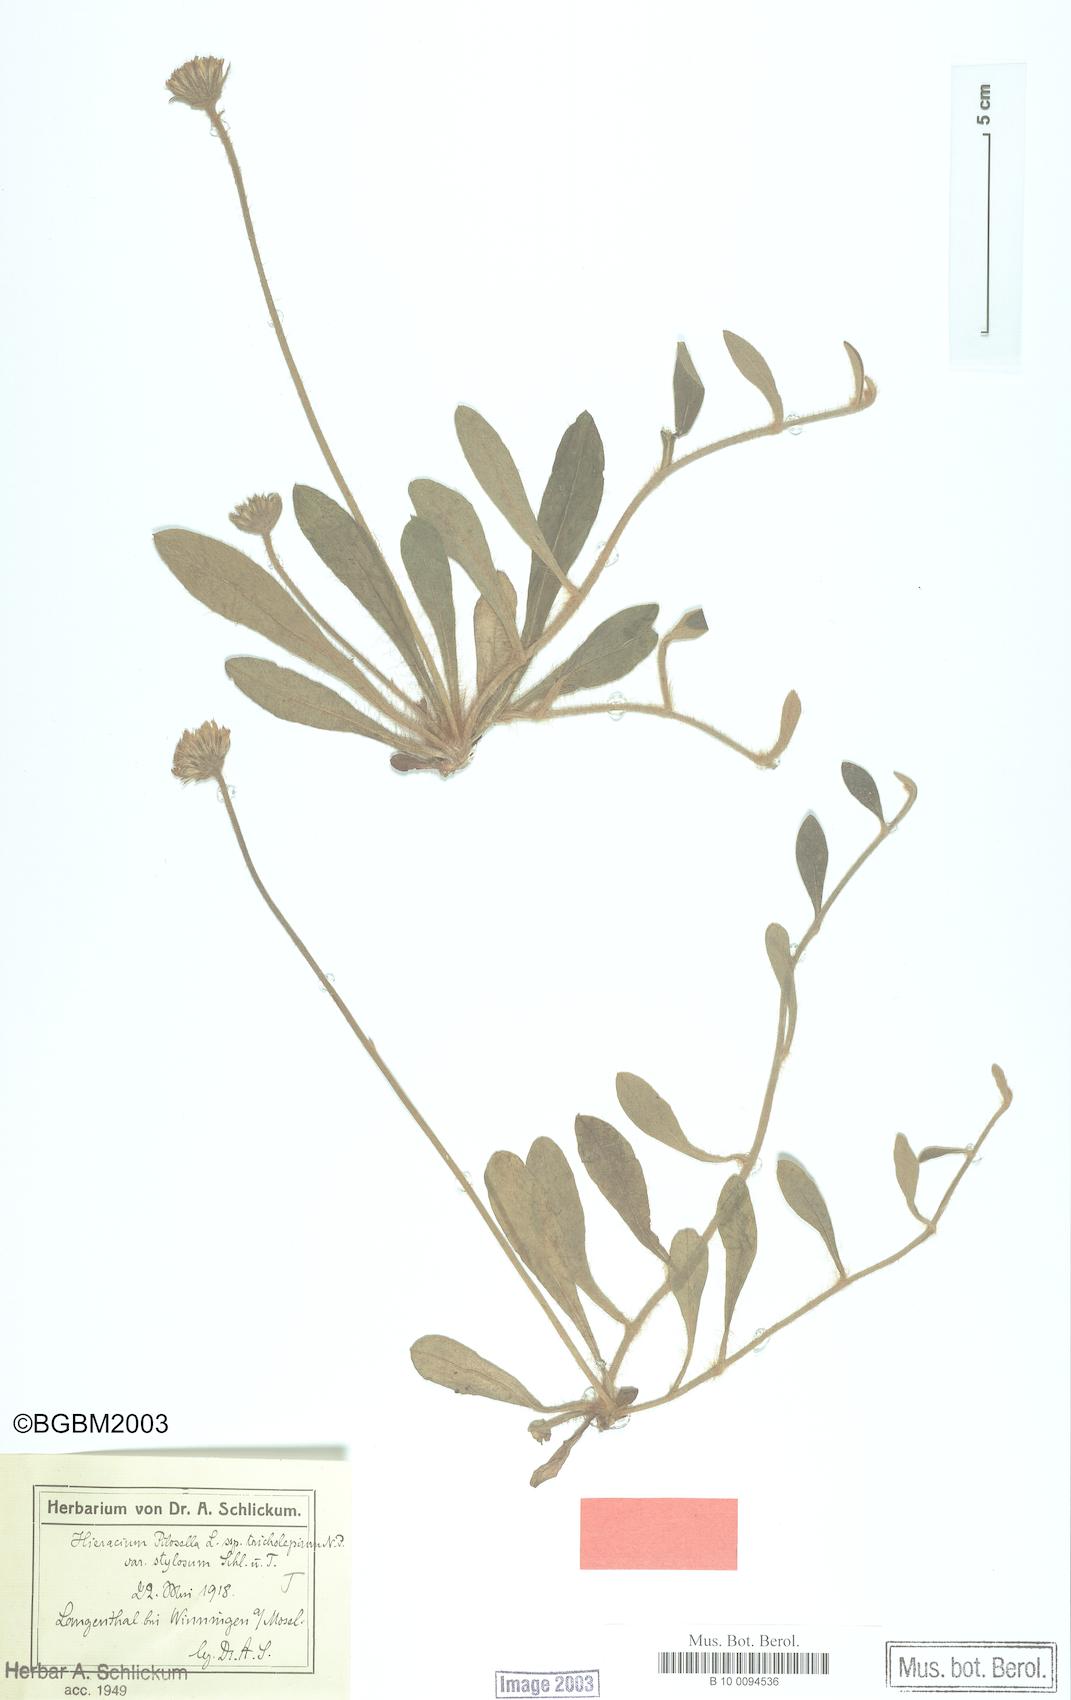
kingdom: Plantae
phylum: Tracheophyta
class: Magnoliopsida
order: Asterales
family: Asteraceae
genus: Pilosella
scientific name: Pilosella officinarum
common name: Mouse-ear hawkweed
